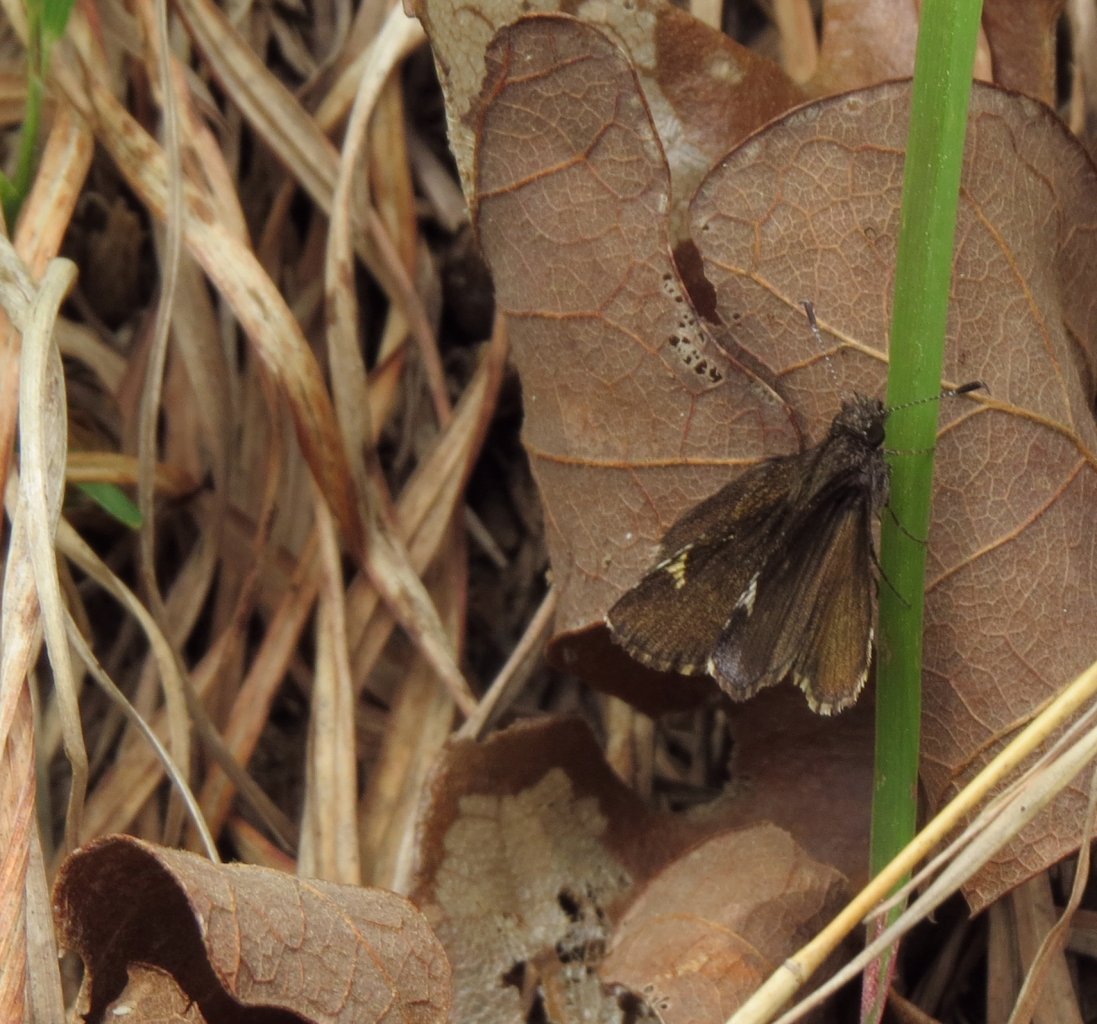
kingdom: Animalia
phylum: Arthropoda
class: Insecta
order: Lepidoptera
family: Hesperiidae
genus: Mastor
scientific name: Mastor vialis
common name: Common Roadside-Skipper
